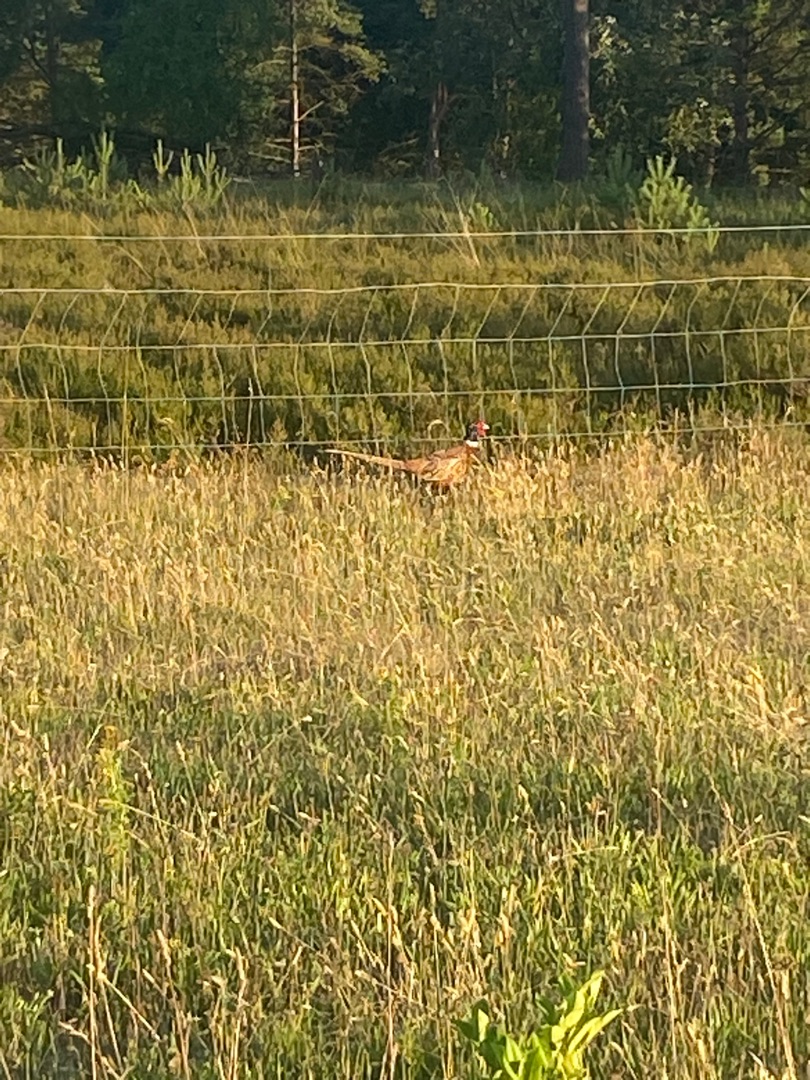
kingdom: Animalia
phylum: Chordata
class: Aves
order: Galliformes
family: Phasianidae
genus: Phasianus
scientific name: Phasianus colchicus
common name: Fasan
